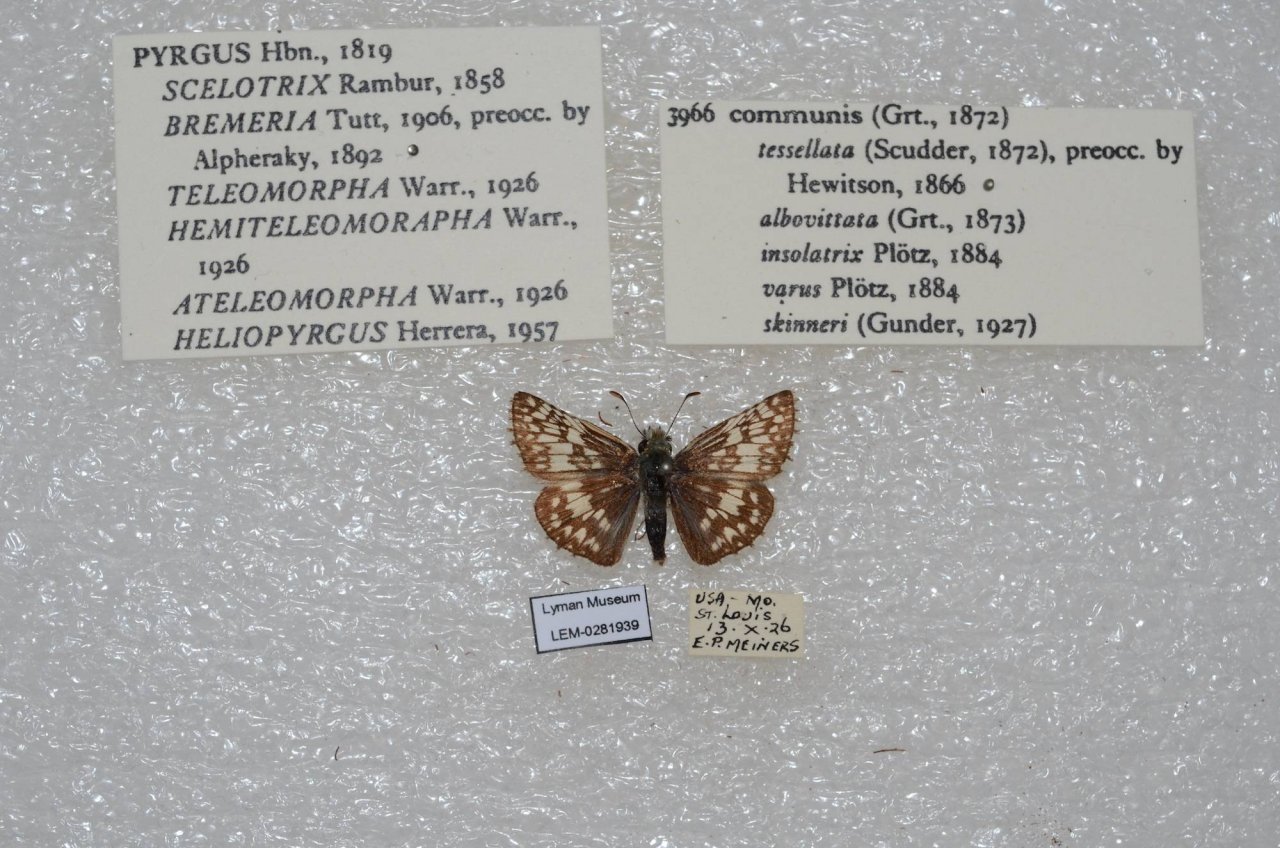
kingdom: Animalia
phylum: Arthropoda
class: Insecta
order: Lepidoptera
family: Hesperiidae
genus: Pyrgus
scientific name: Pyrgus communis
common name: Common Checkered-Skipper
